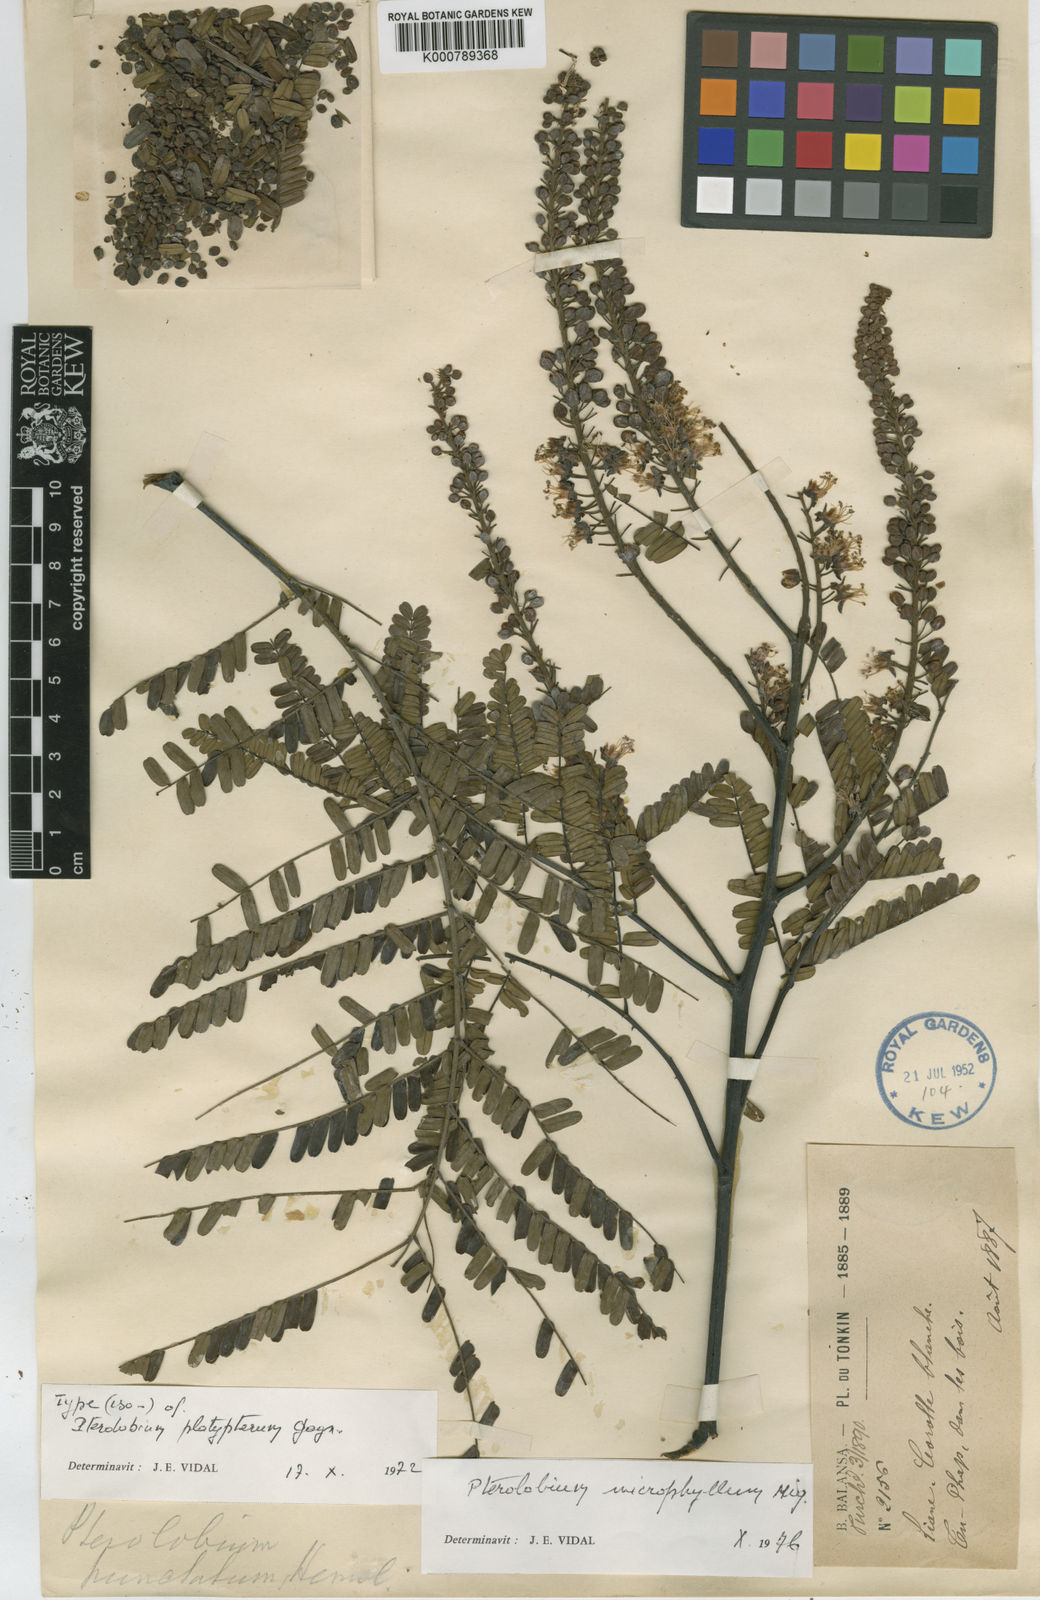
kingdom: Plantae
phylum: Tracheophyta
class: Magnoliopsida
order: Fabales
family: Fabaceae
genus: Pterolobium
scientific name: Pterolobium microphyllum
